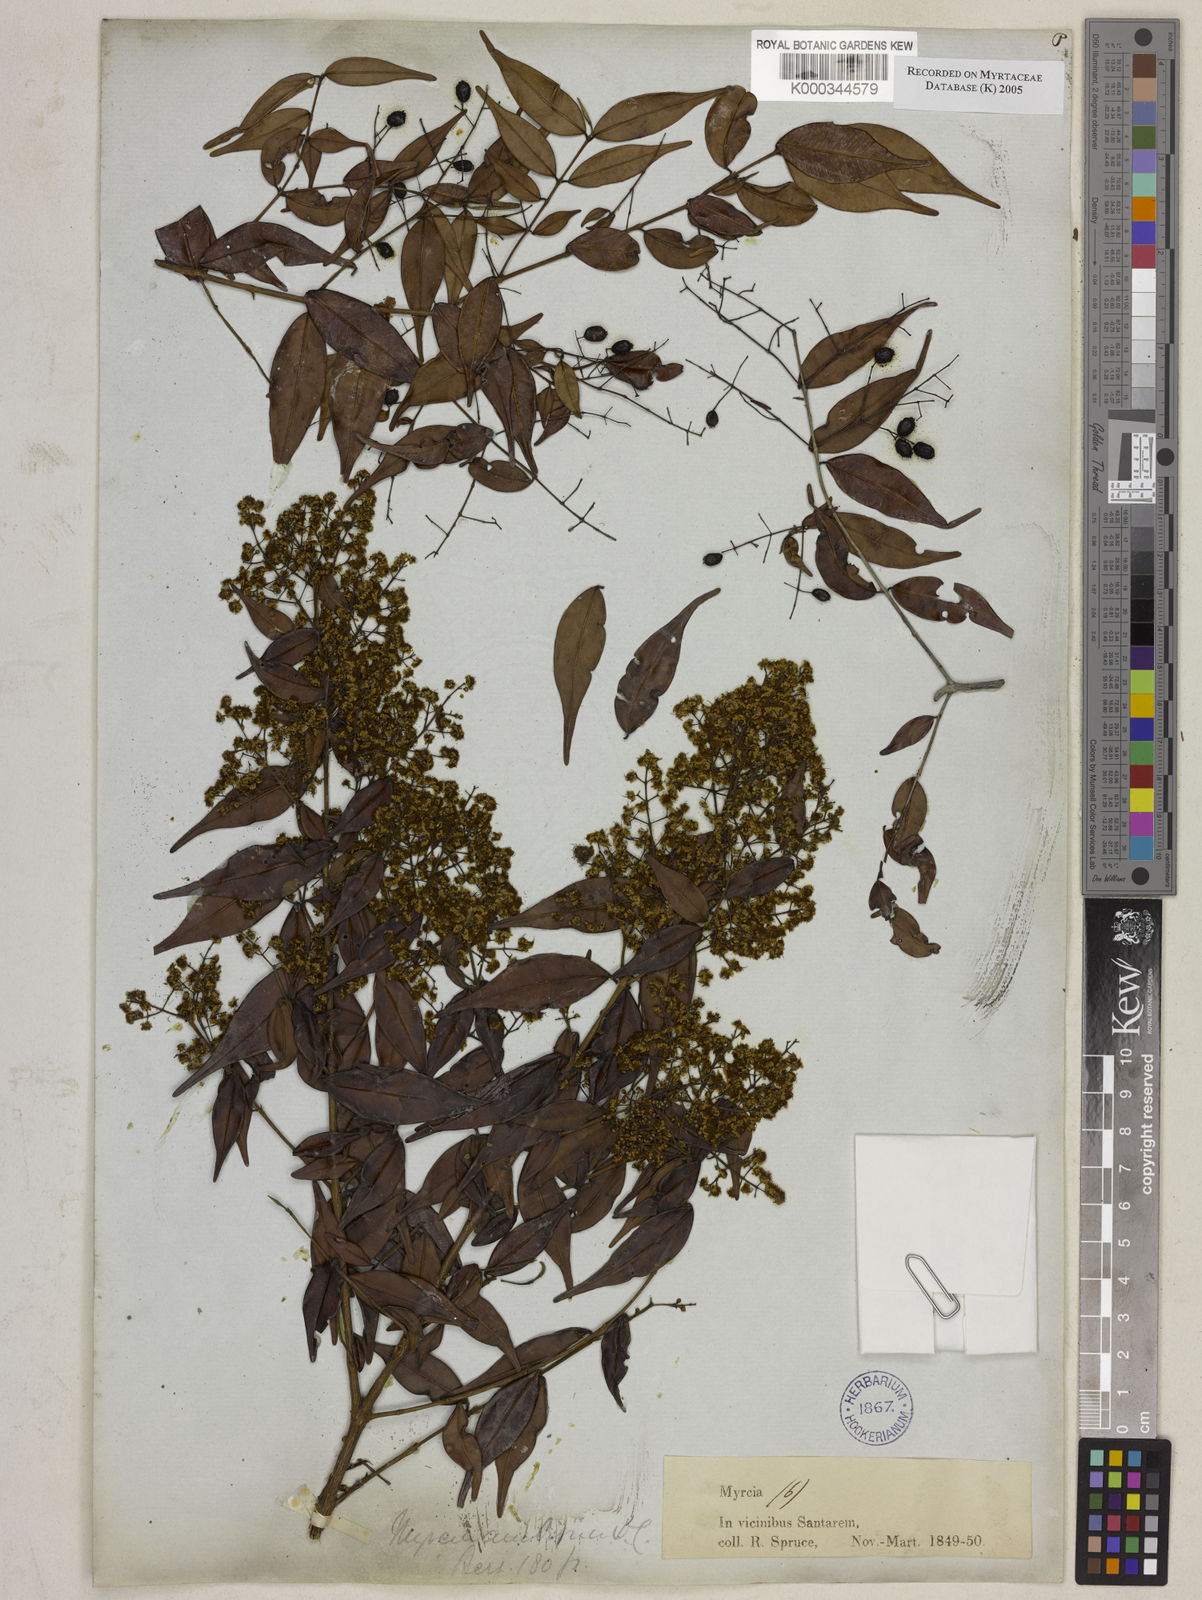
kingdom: Plantae
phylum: Tracheophyta
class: Magnoliopsida
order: Myrtales
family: Myrtaceae
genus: Myrcia
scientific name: Myrcia sylvatica
